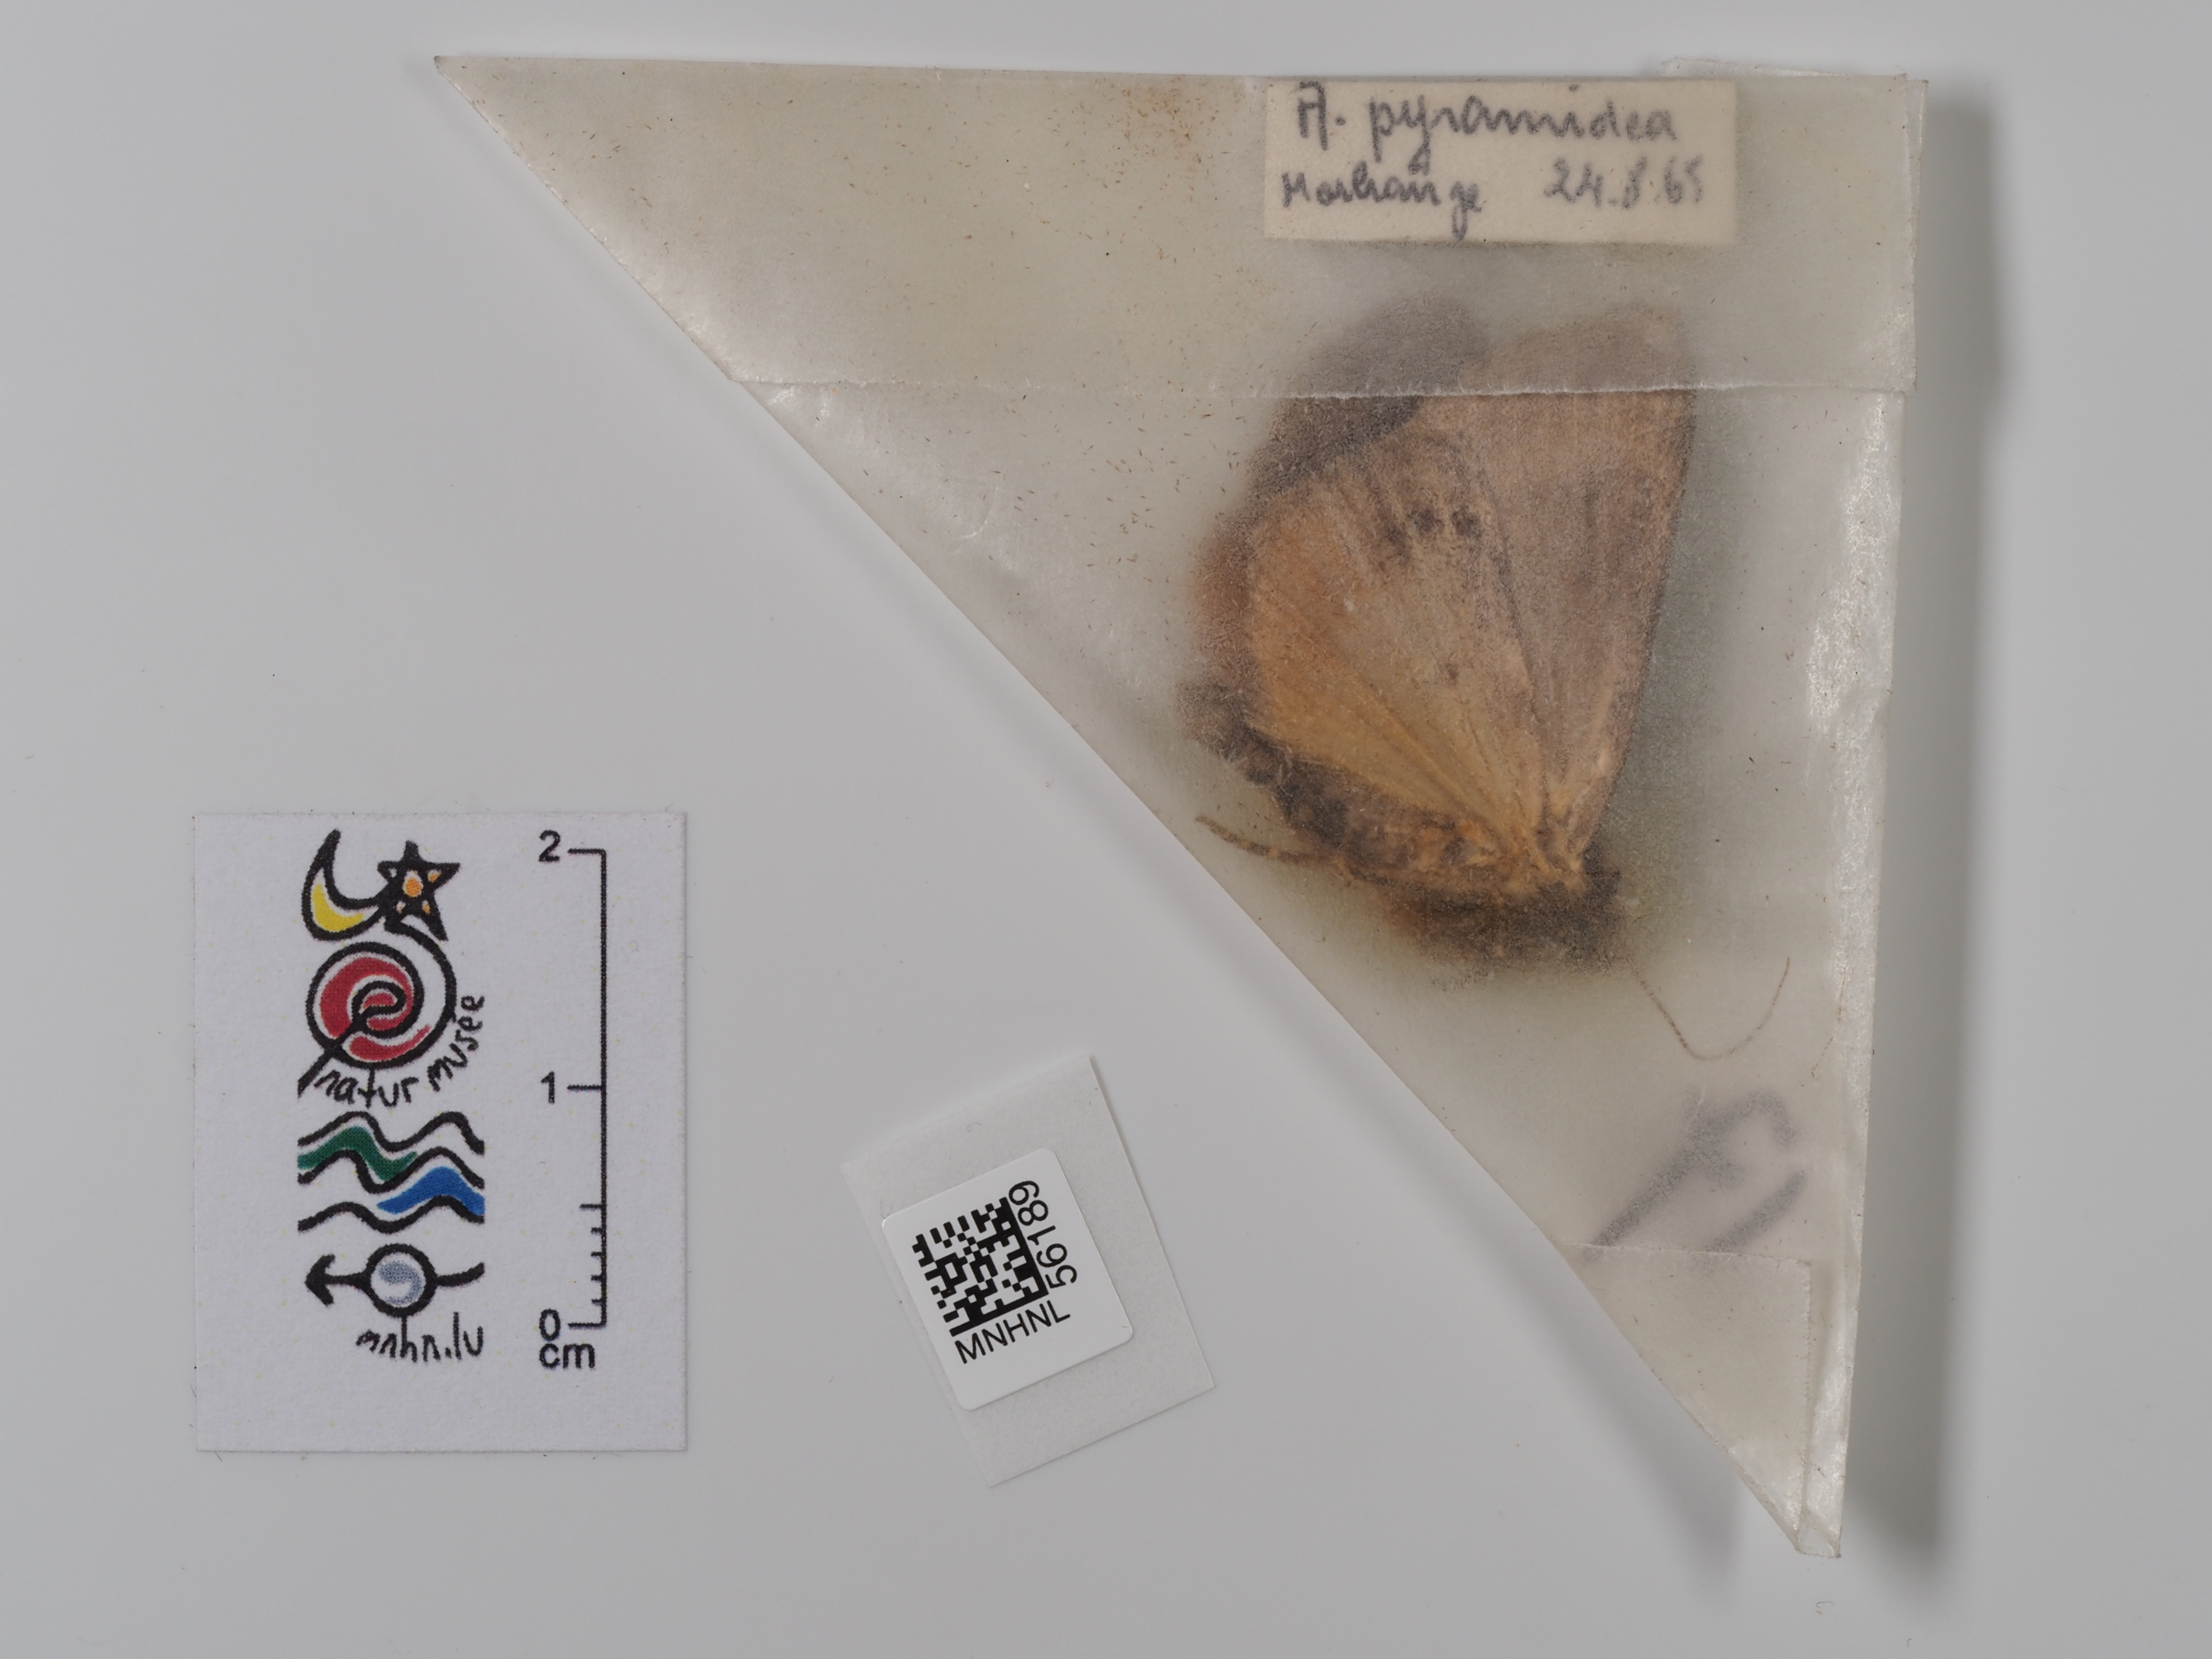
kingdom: Animalia
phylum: Arthropoda
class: Insecta
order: Lepidoptera
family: Noctuidae
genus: Amphipyra
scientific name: Amphipyra pyramidea
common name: Copper underwing
